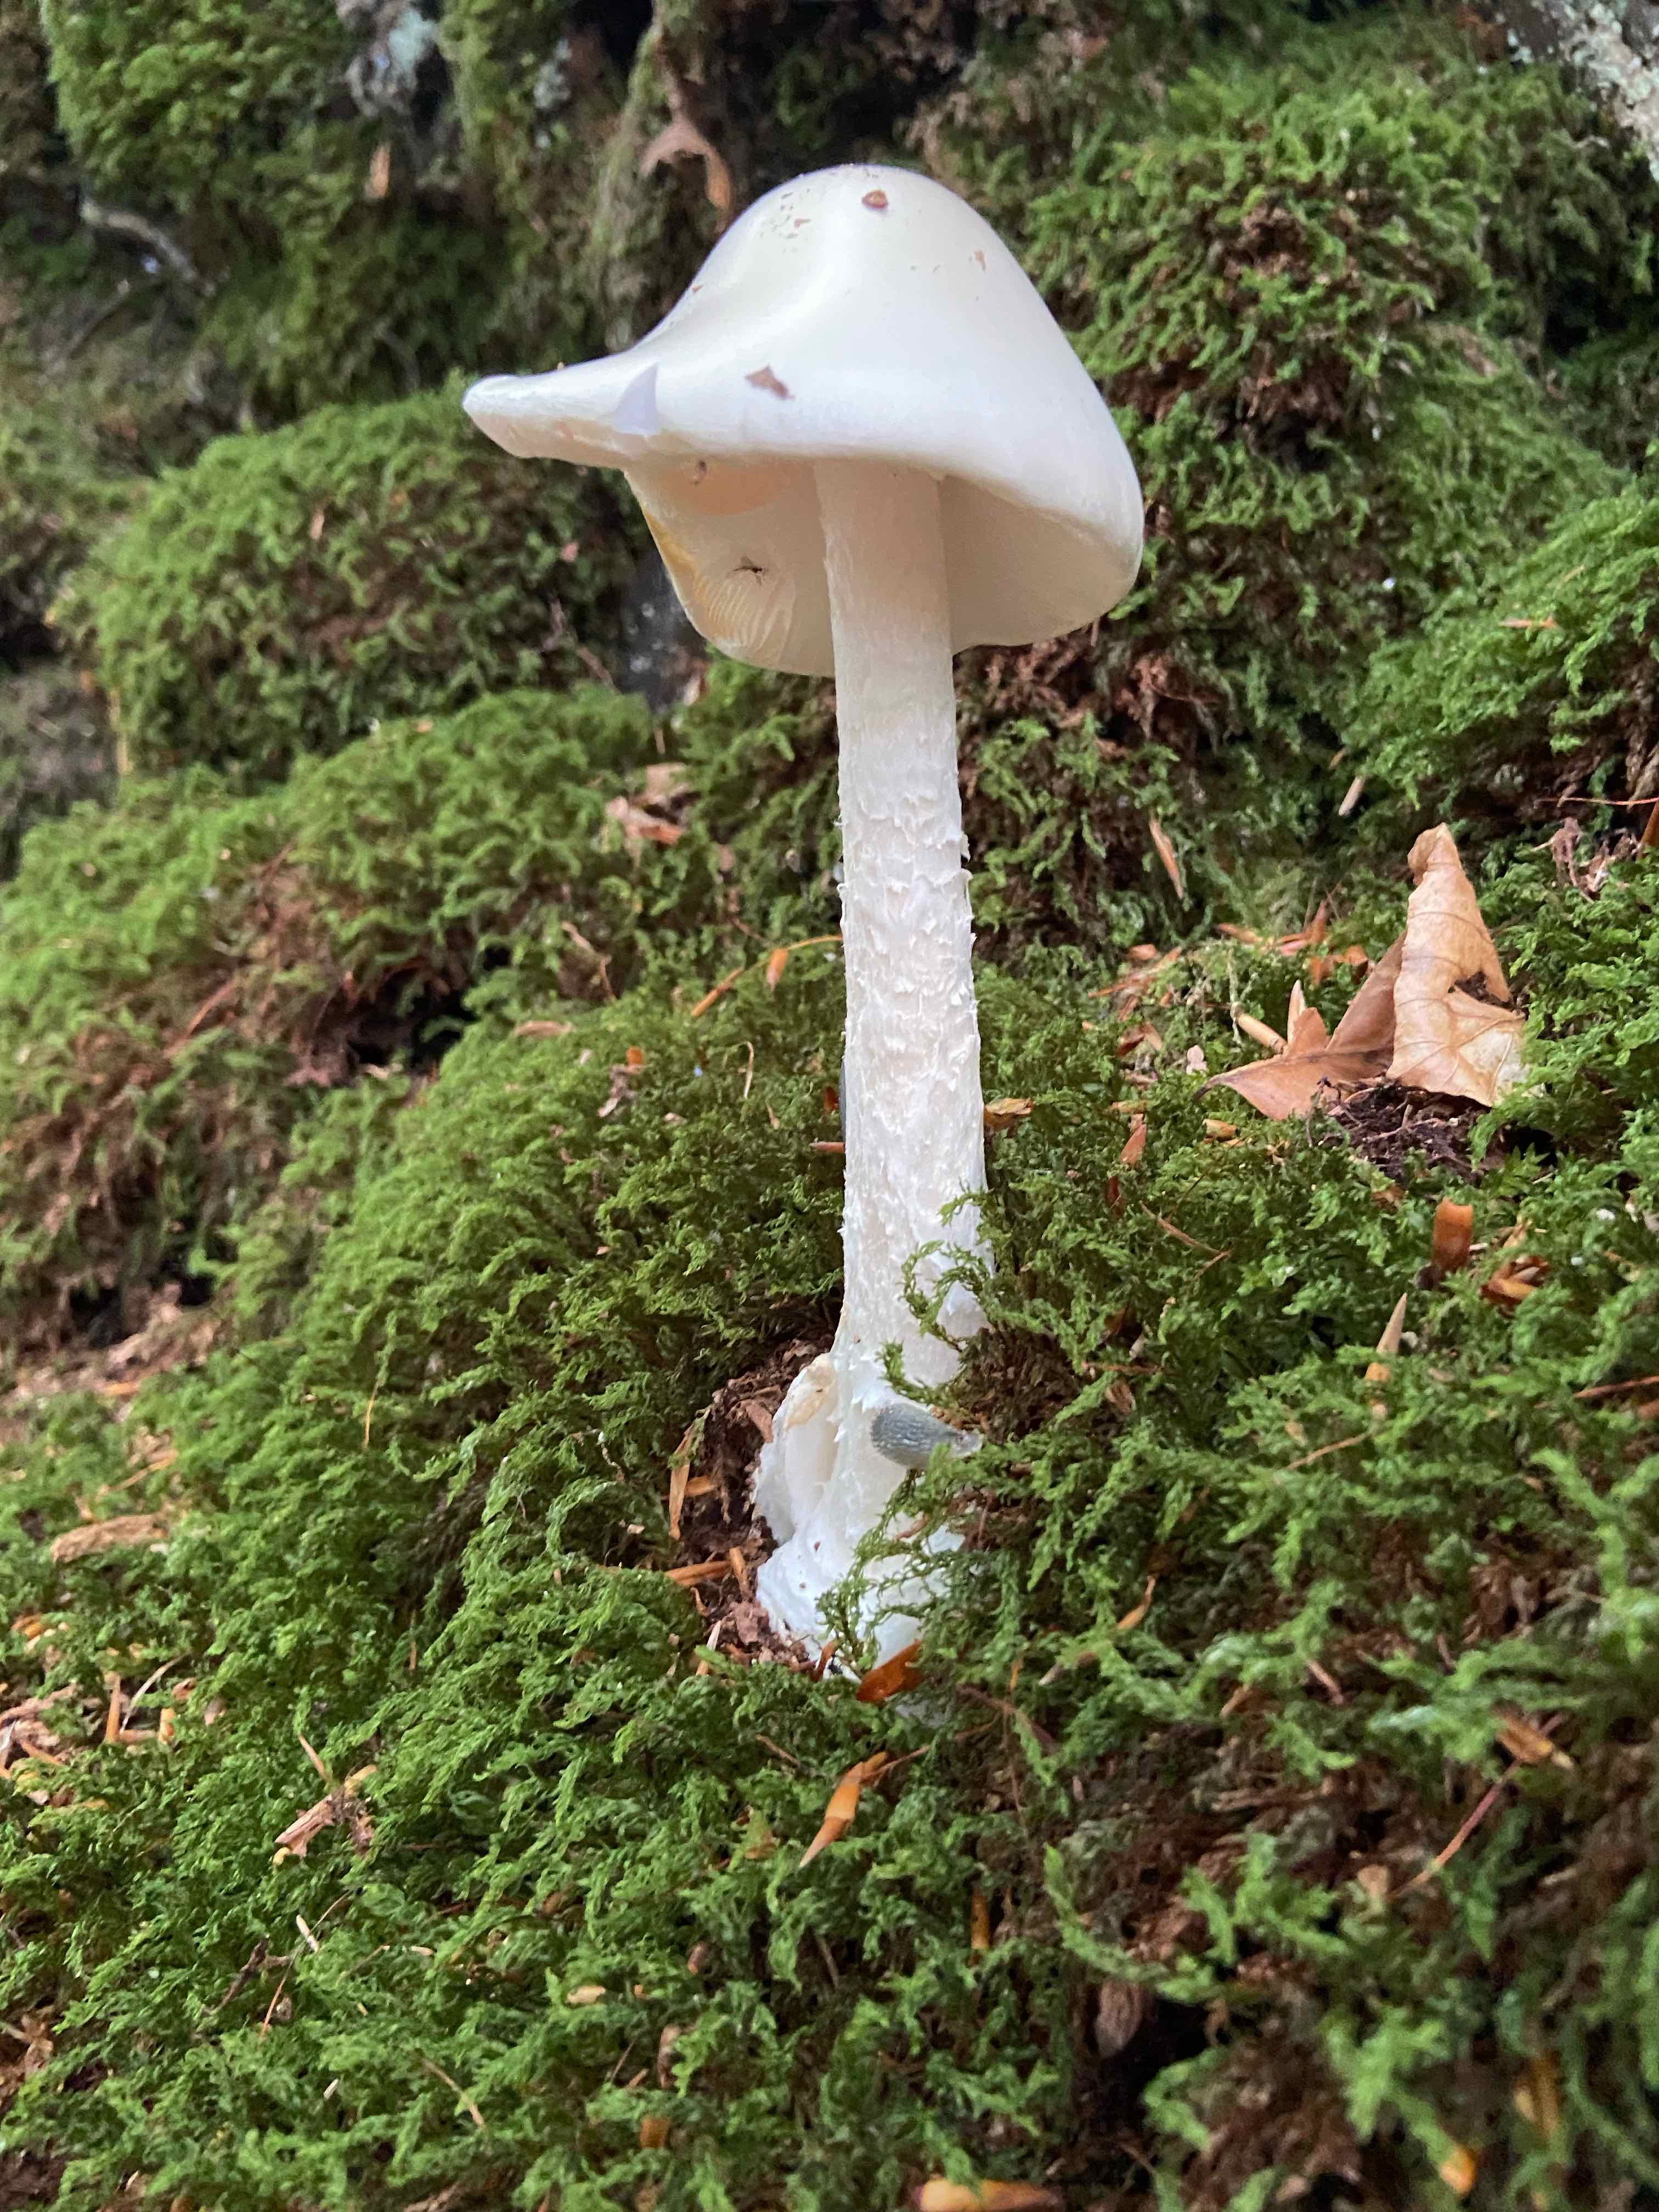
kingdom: Fungi
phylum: Basidiomycota
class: Agaricomycetes
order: Agaricales
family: Amanitaceae
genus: Amanita
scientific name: Amanita virosa
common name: snehvid fluesvamp
